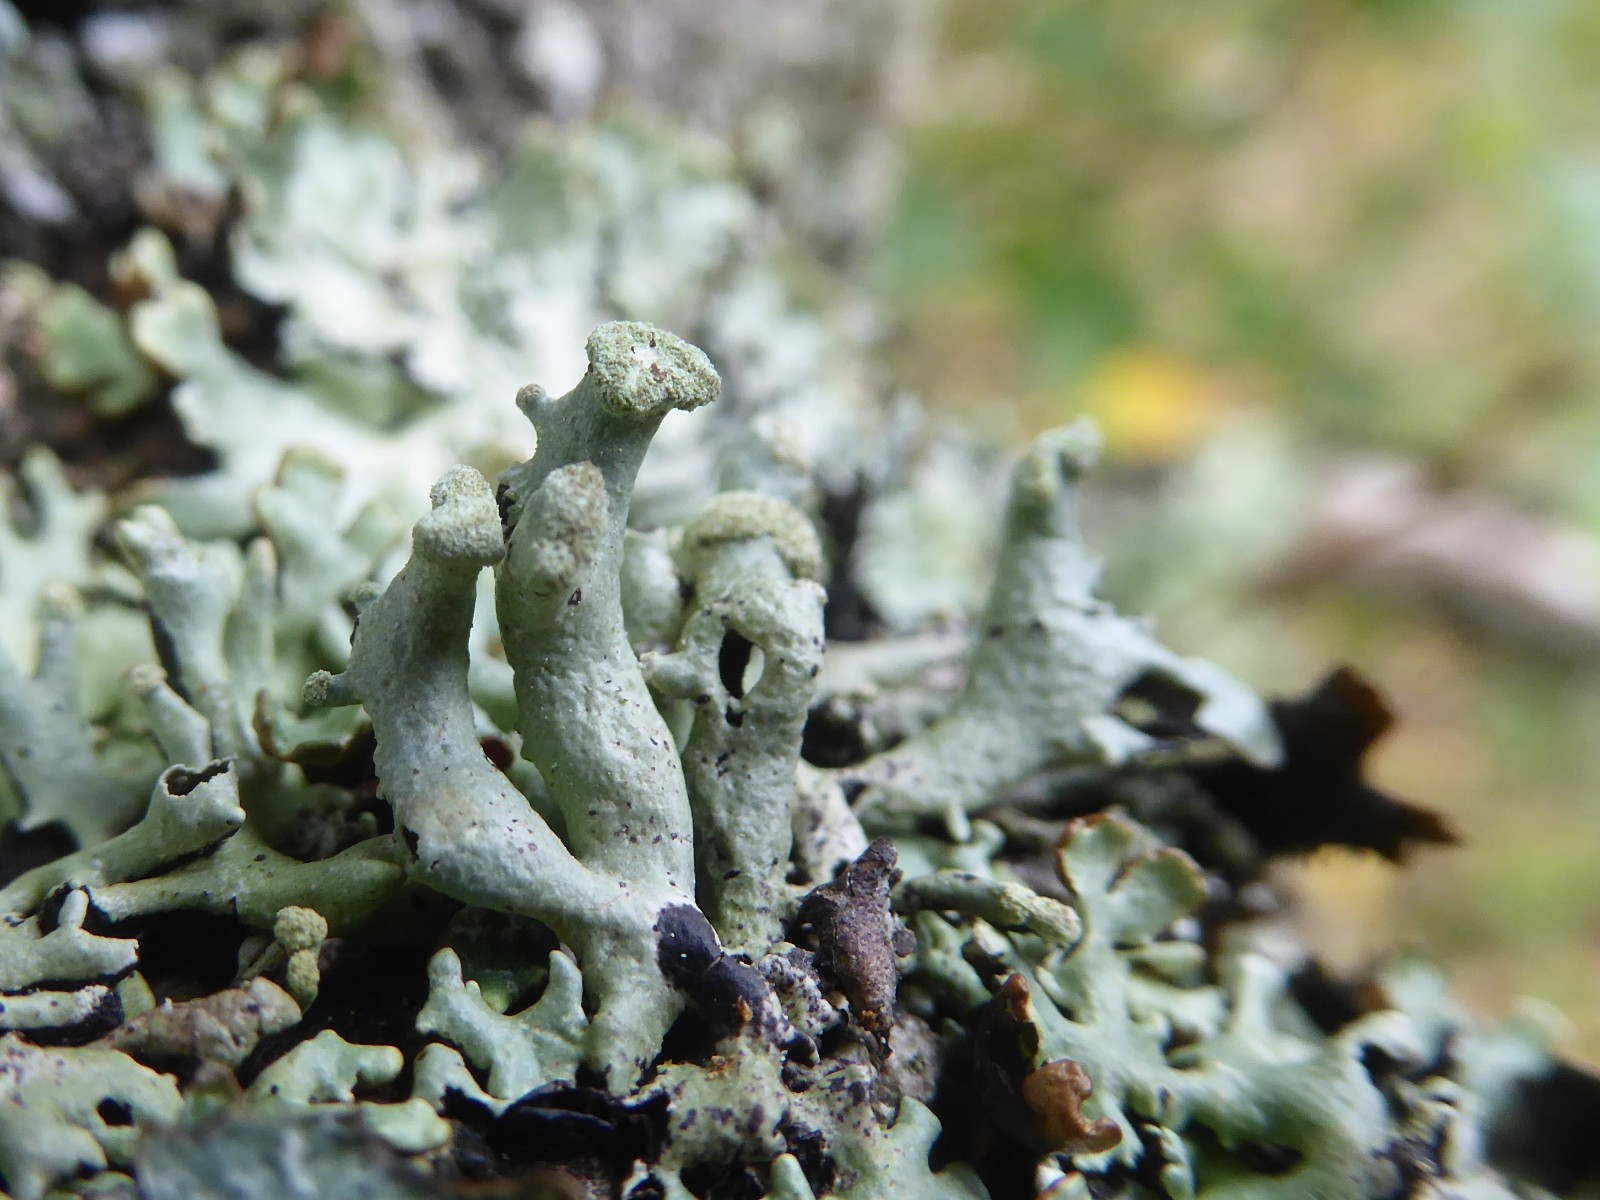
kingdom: Fungi
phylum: Ascomycota
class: Lecanoromycetes
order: Lecanorales
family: Parmeliaceae
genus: Hypogymnia
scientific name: Hypogymnia tubulosa
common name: finger-kvistlav
